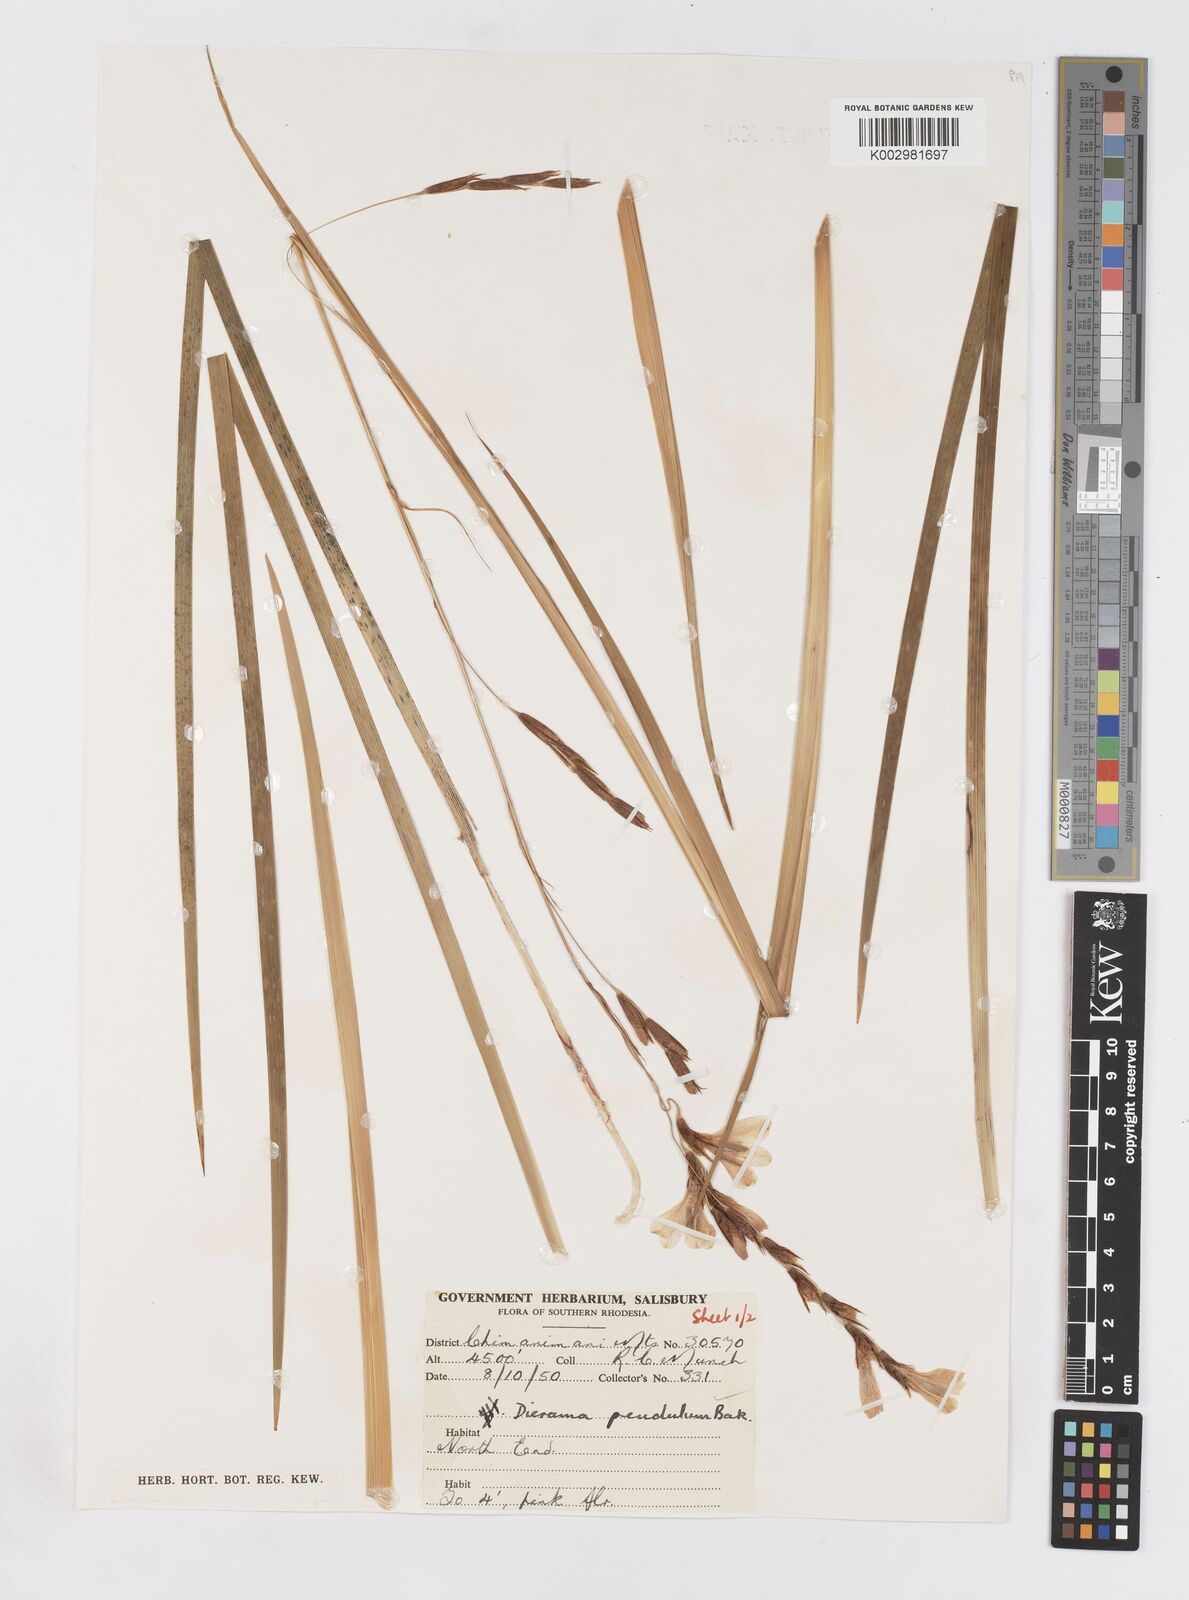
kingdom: Plantae
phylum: Tracheophyta
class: Liliopsida
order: Asparagales
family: Iridaceae
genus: Dierama
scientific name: Dierama formosum
